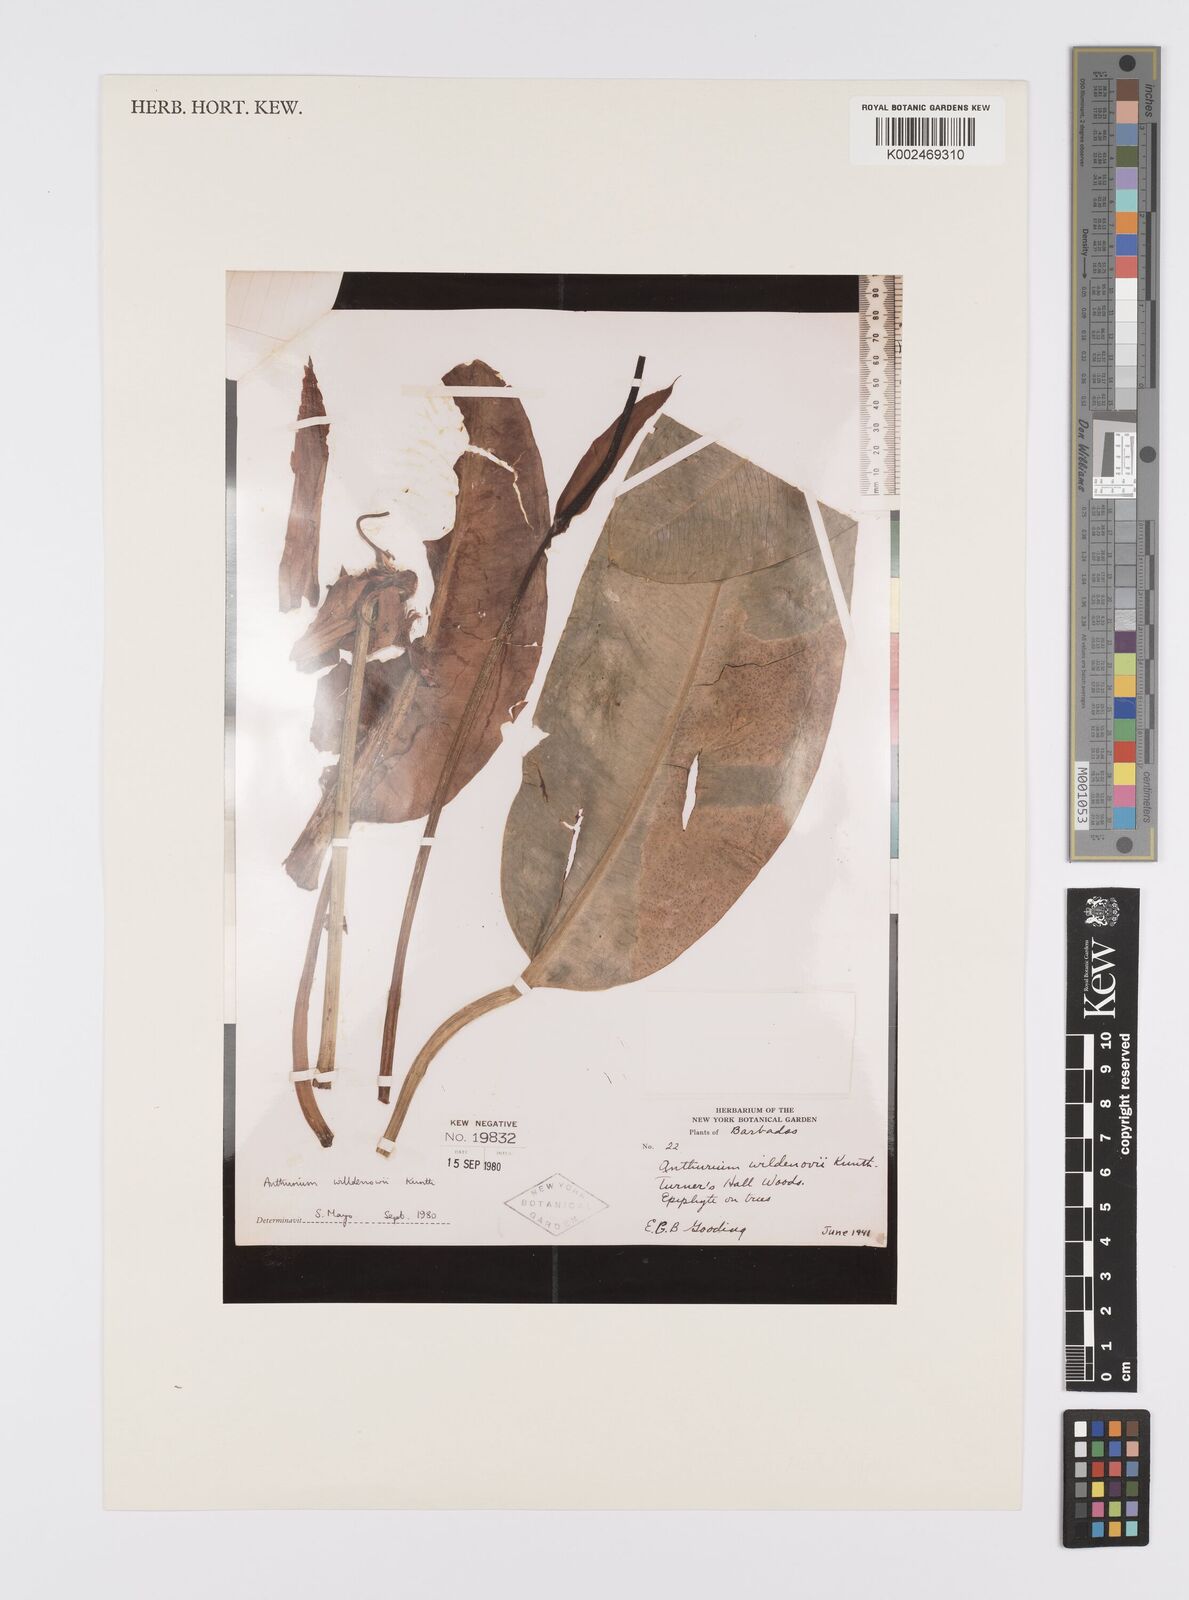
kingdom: Plantae
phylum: Tracheophyta
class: Liliopsida
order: Alismatales
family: Araceae
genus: Anthurium
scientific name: Anthurium willdenowii
